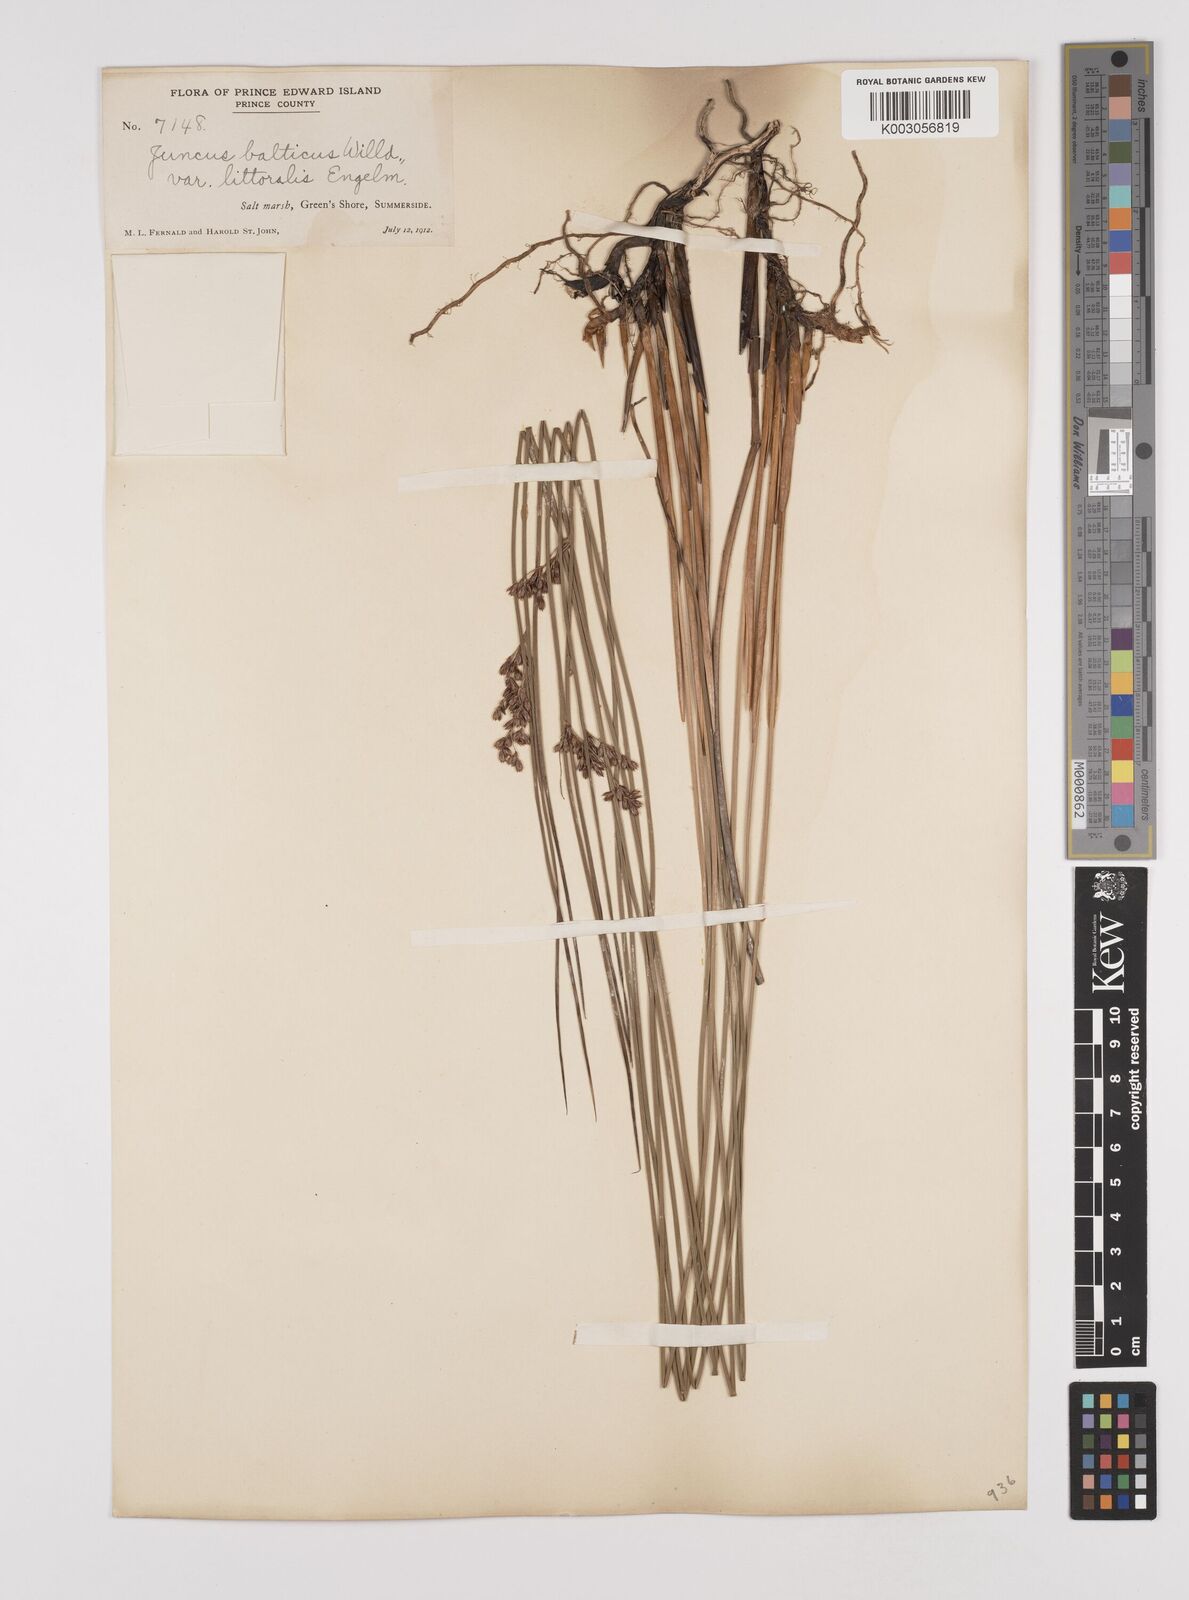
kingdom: Plantae
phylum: Tracheophyta
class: Liliopsida
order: Poales
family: Juncaceae
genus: Juncus
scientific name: Juncus balticus
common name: Baltic rush
